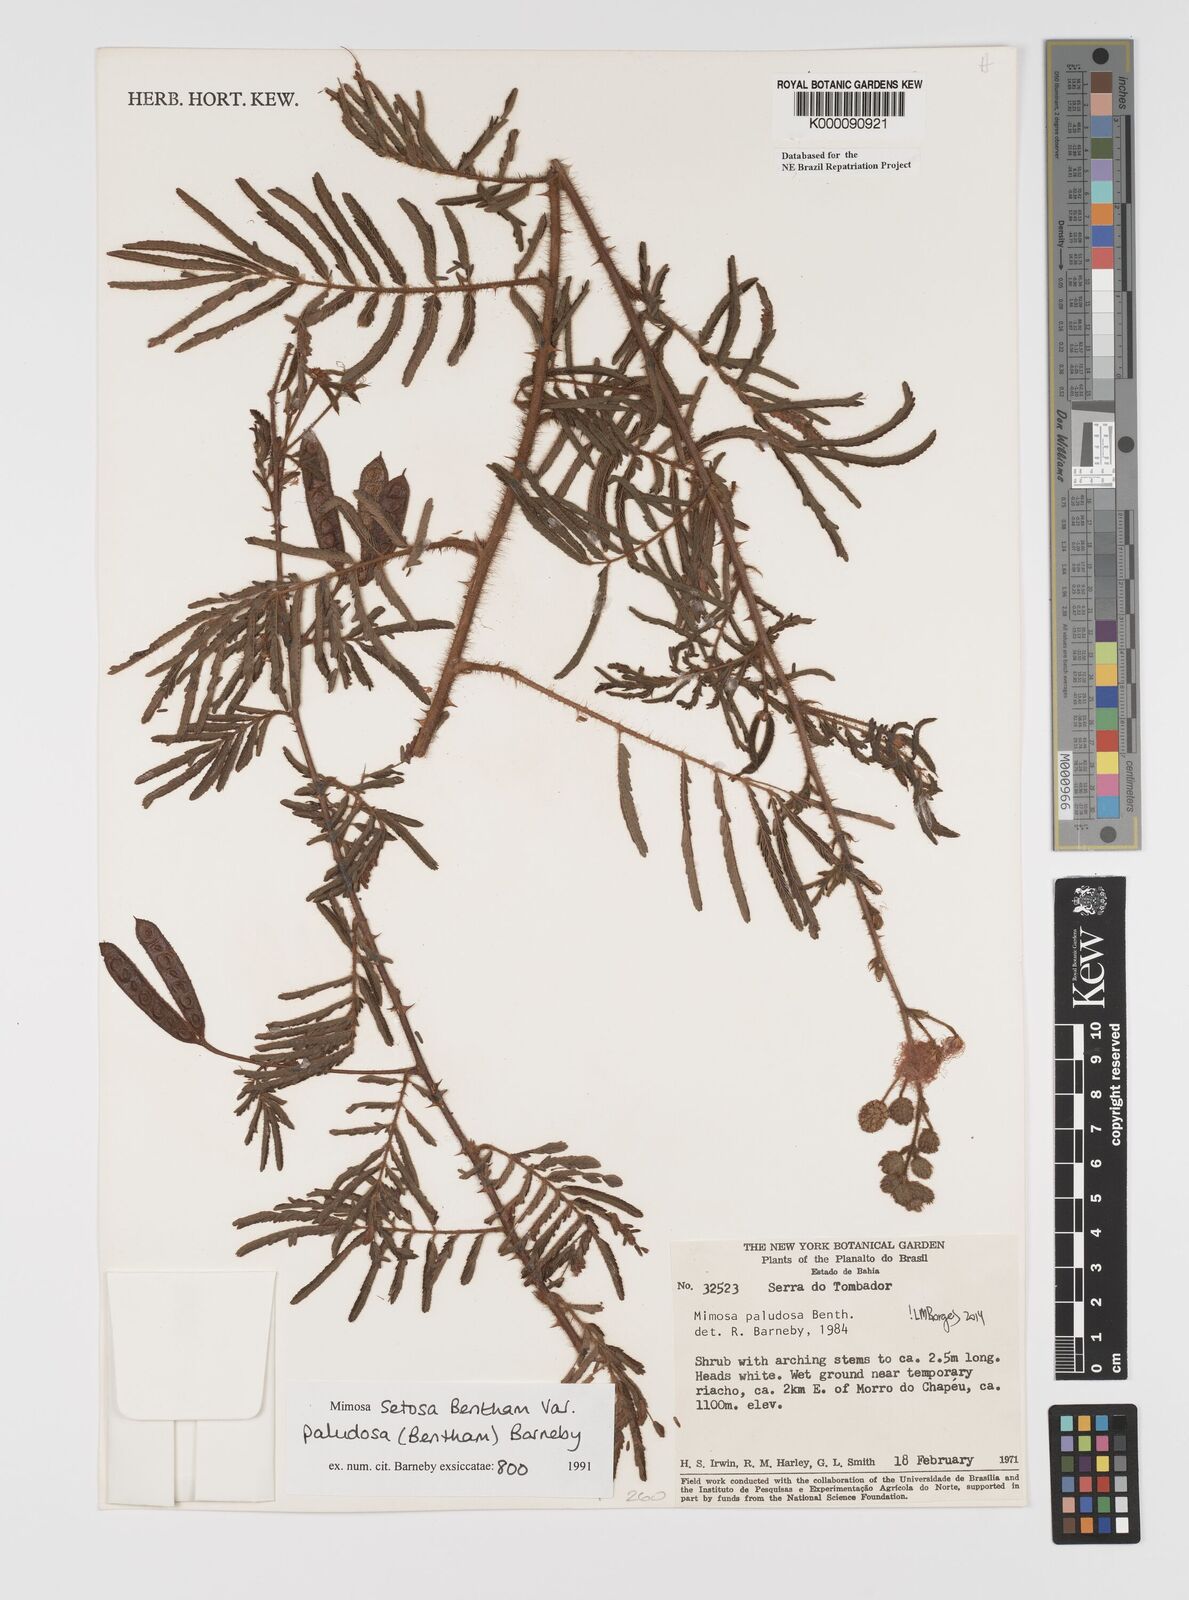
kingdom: Plantae
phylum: Tracheophyta
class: Magnoliopsida
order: Fabales
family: Fabaceae
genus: Mimosa
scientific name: Mimosa paludosa
